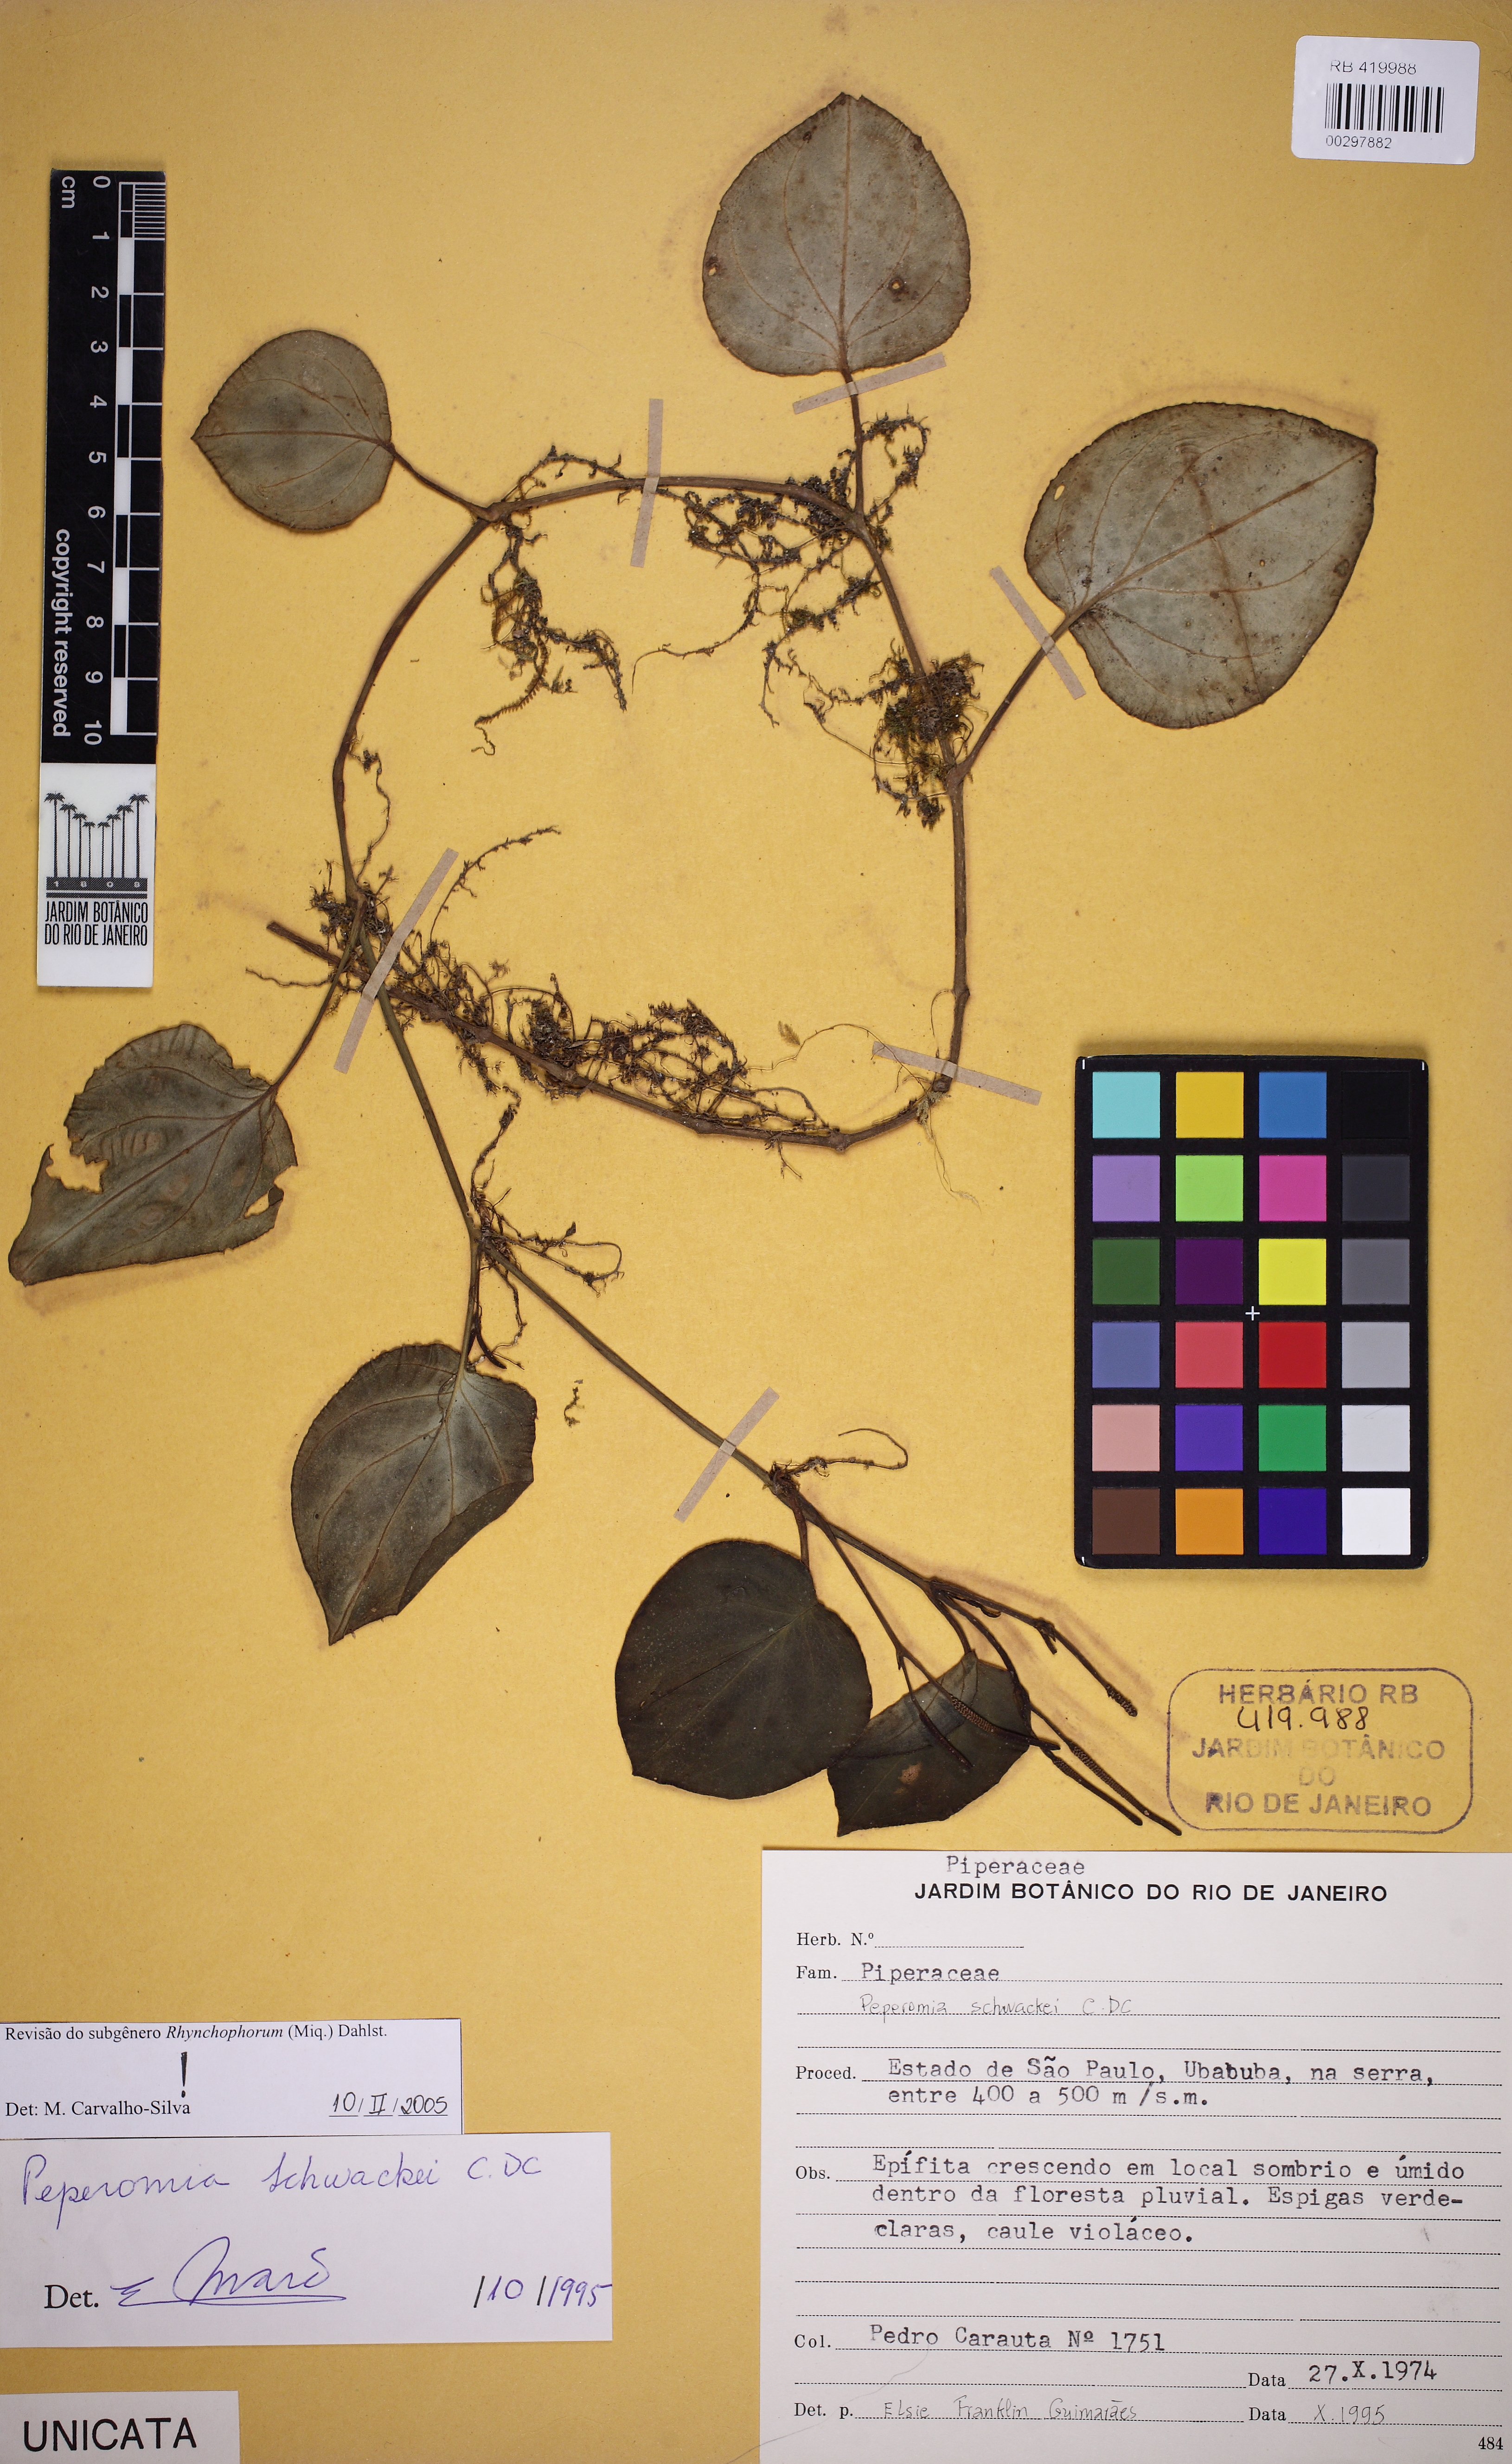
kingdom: Plantae
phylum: Tracheophyta
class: Magnoliopsida
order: Piperales
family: Piperaceae
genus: Peperomia
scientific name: Peperomia schwackei
